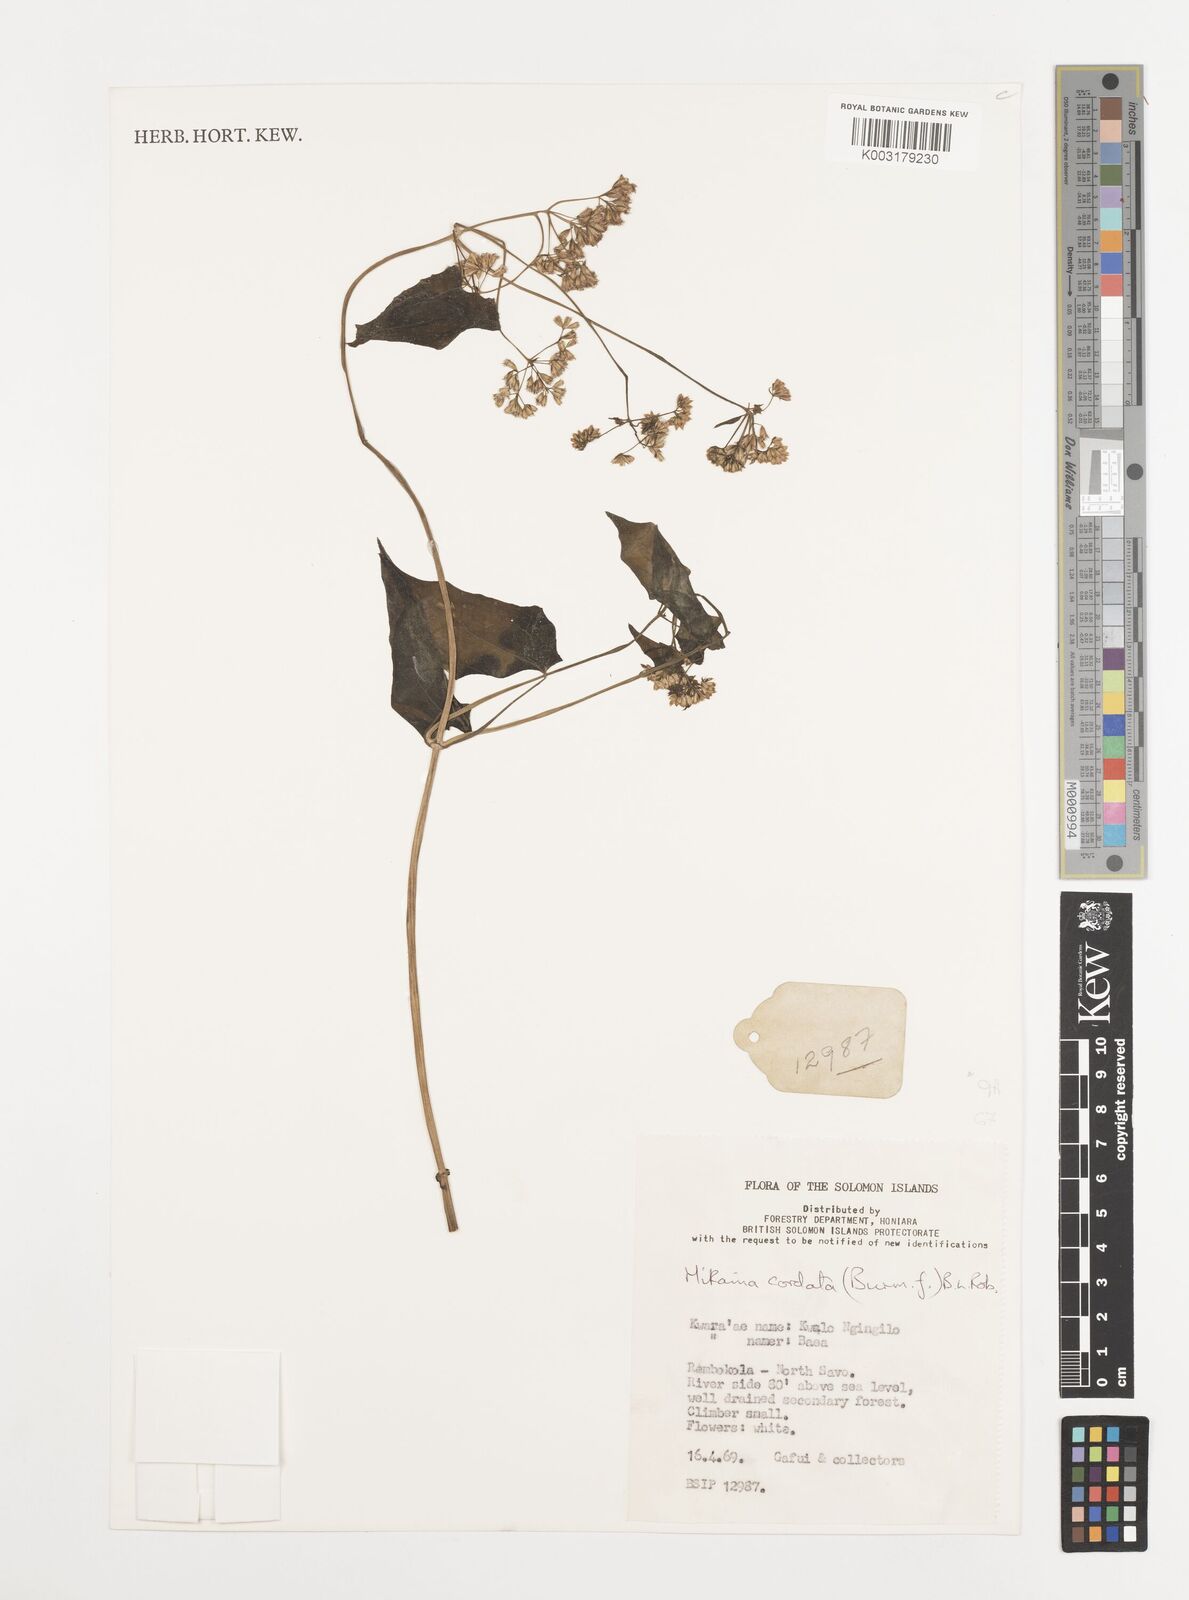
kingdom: Plantae
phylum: Tracheophyta
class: Magnoliopsida
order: Asterales
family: Asteraceae
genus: Mikania
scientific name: Mikania micrantha
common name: Mile-a-minute
